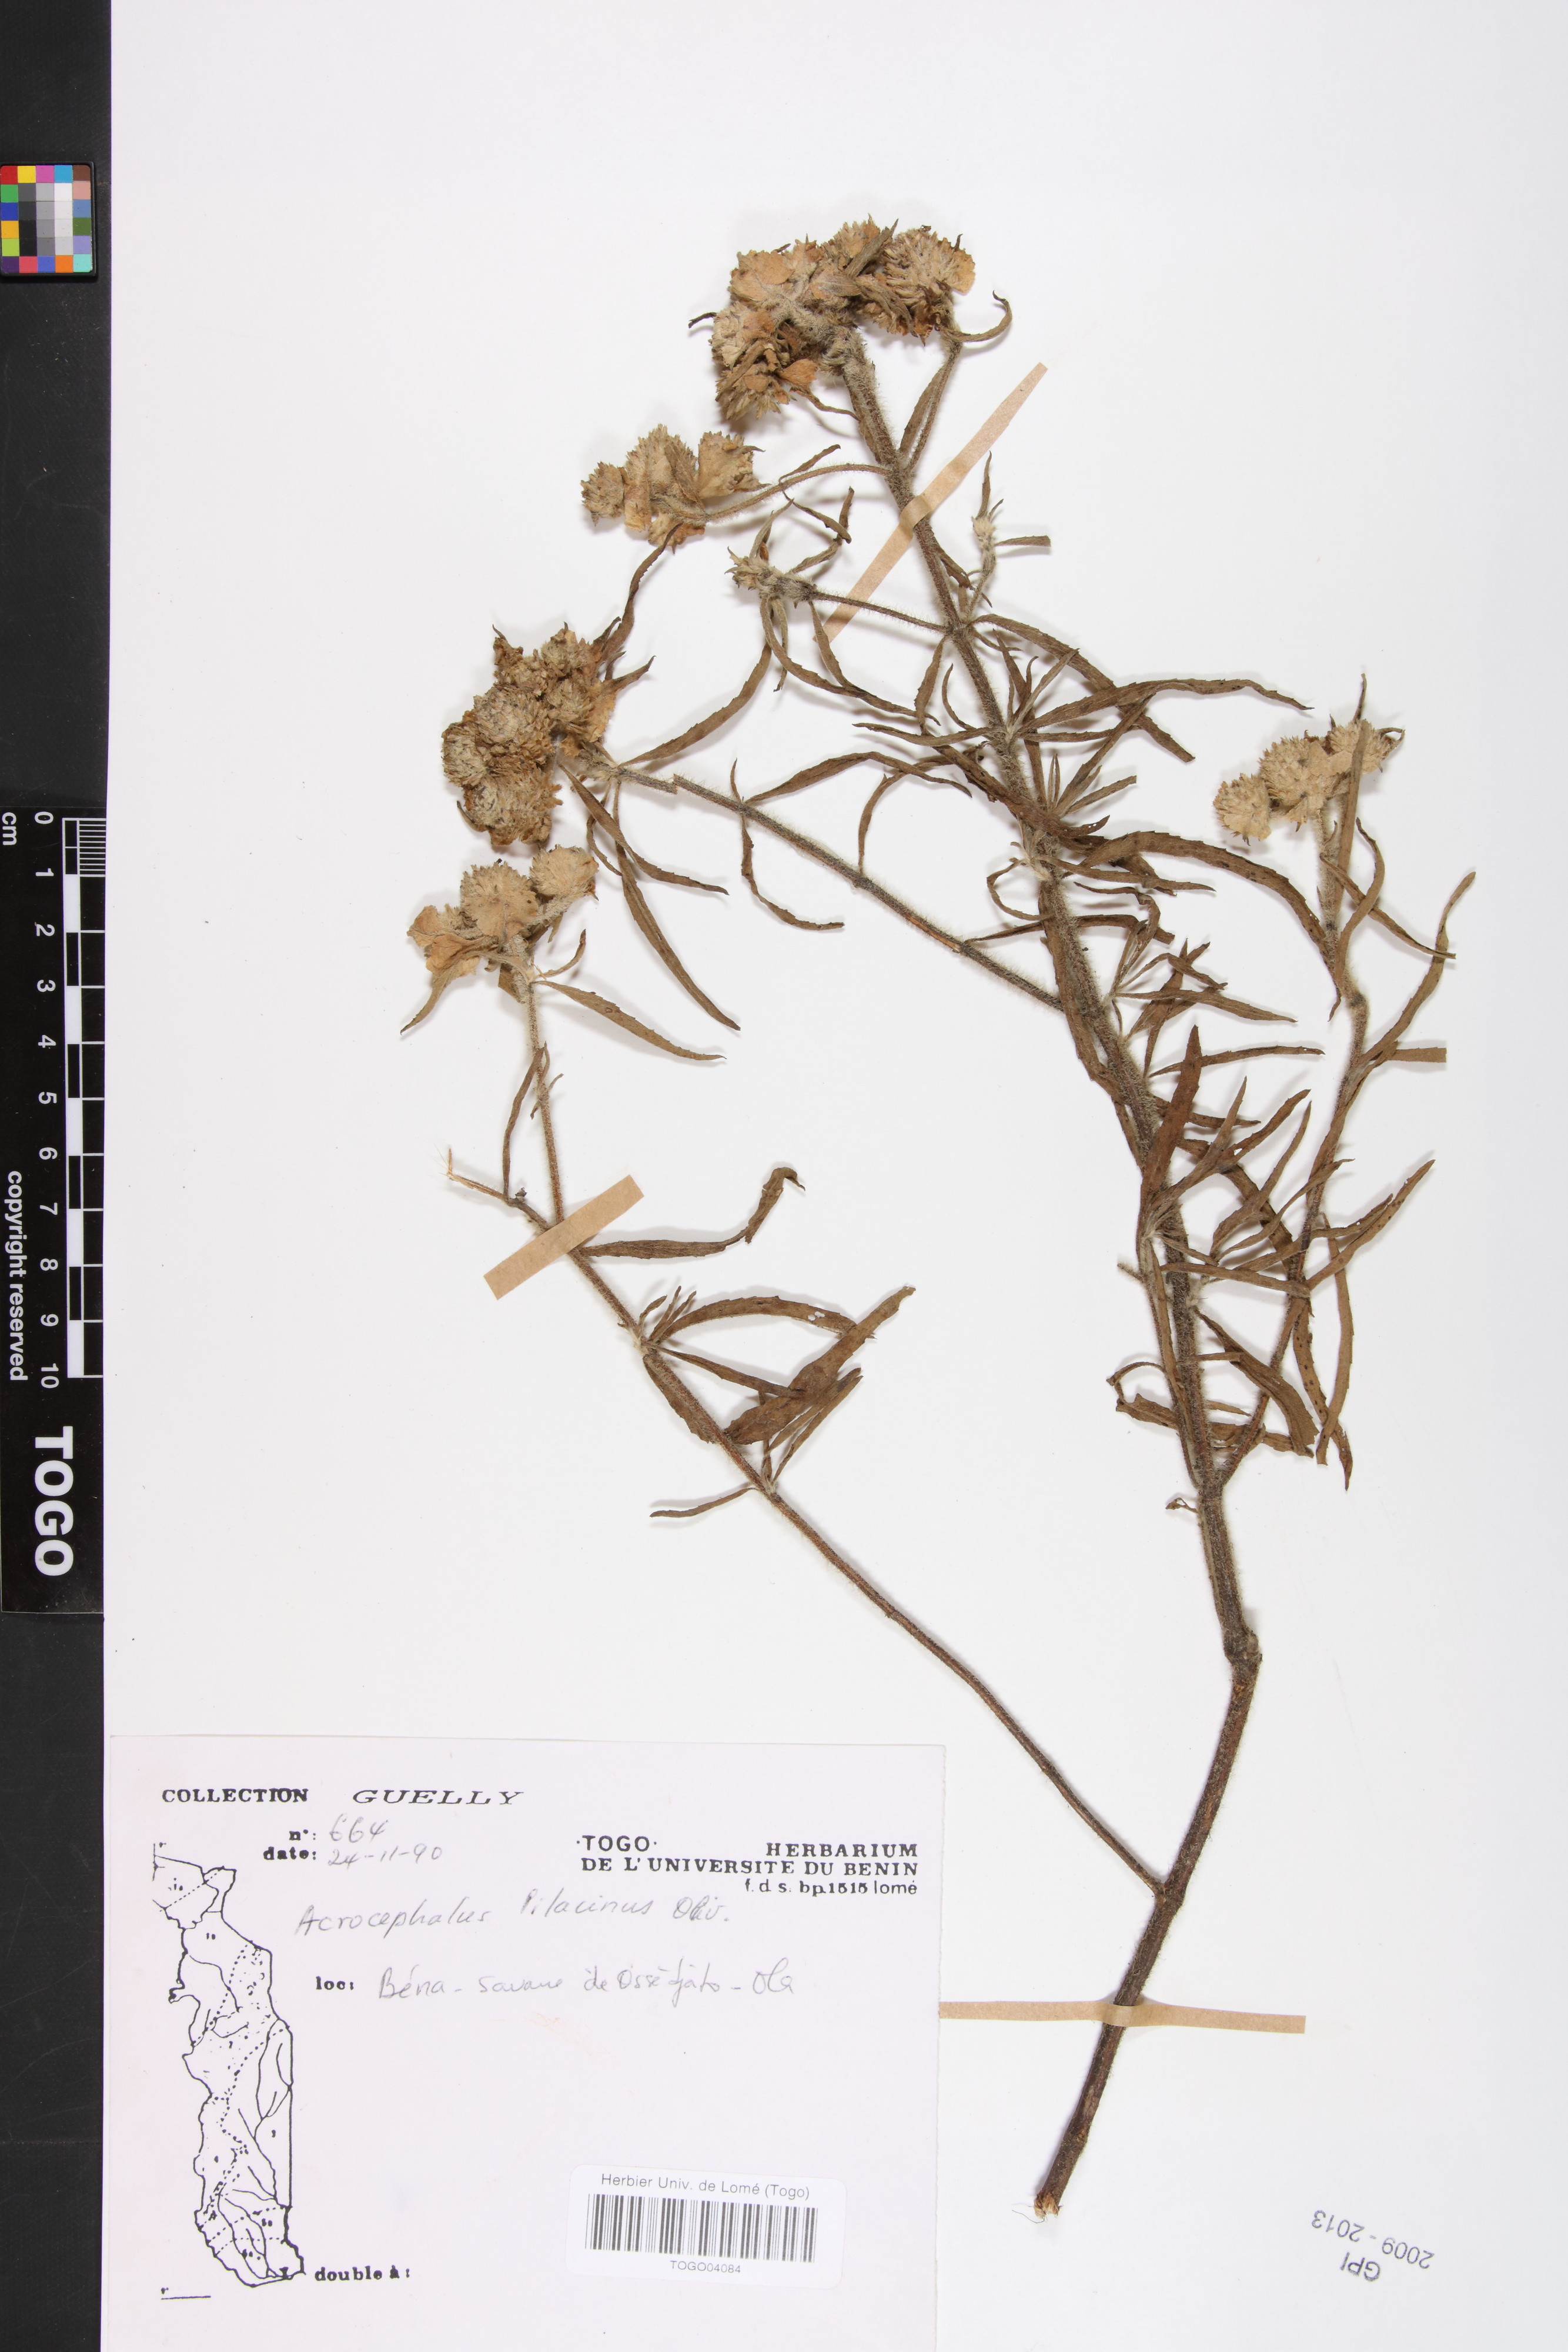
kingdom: Plantae
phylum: Tracheophyta
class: Magnoliopsida
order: Lamiales
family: Lamiaceae
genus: Haumaniastrum
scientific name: Haumaniastrum caeruleum
